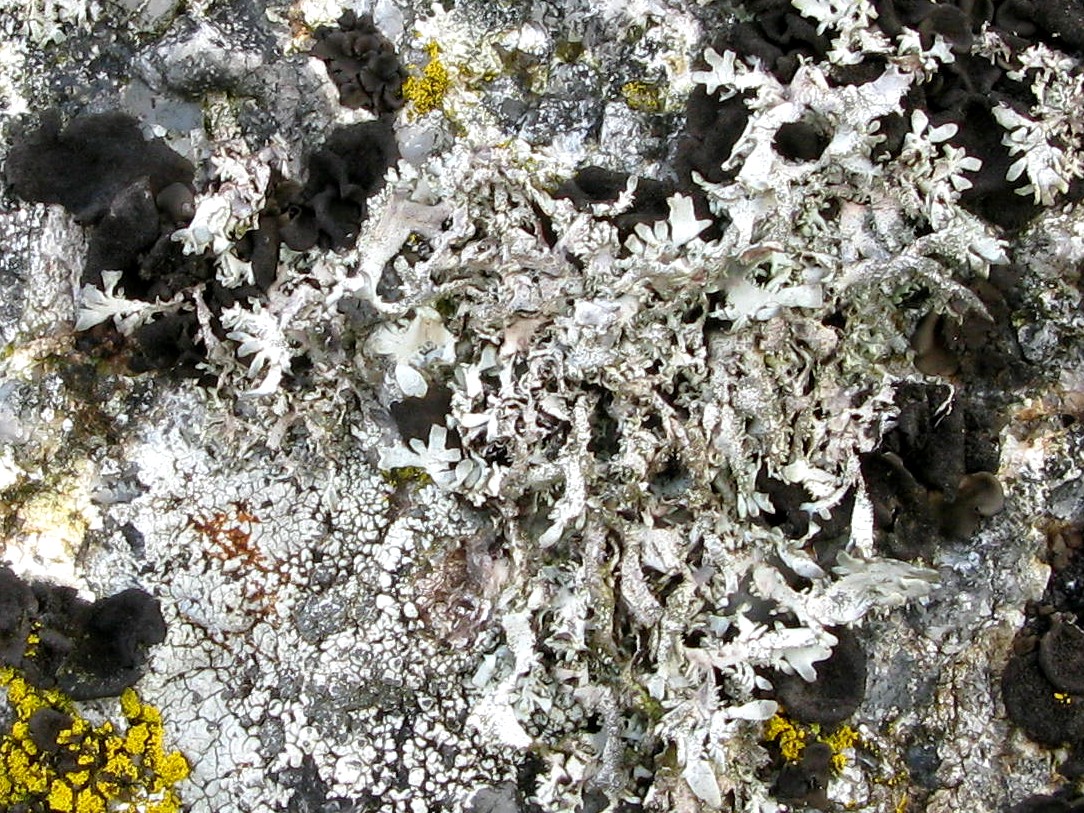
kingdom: Fungi
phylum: Ascomycota
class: Lecanoromycetes
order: Lecanorales
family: Parmeliaceae
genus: Pseudevernia
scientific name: Pseudevernia furfuracea
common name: grå fyrrelav
